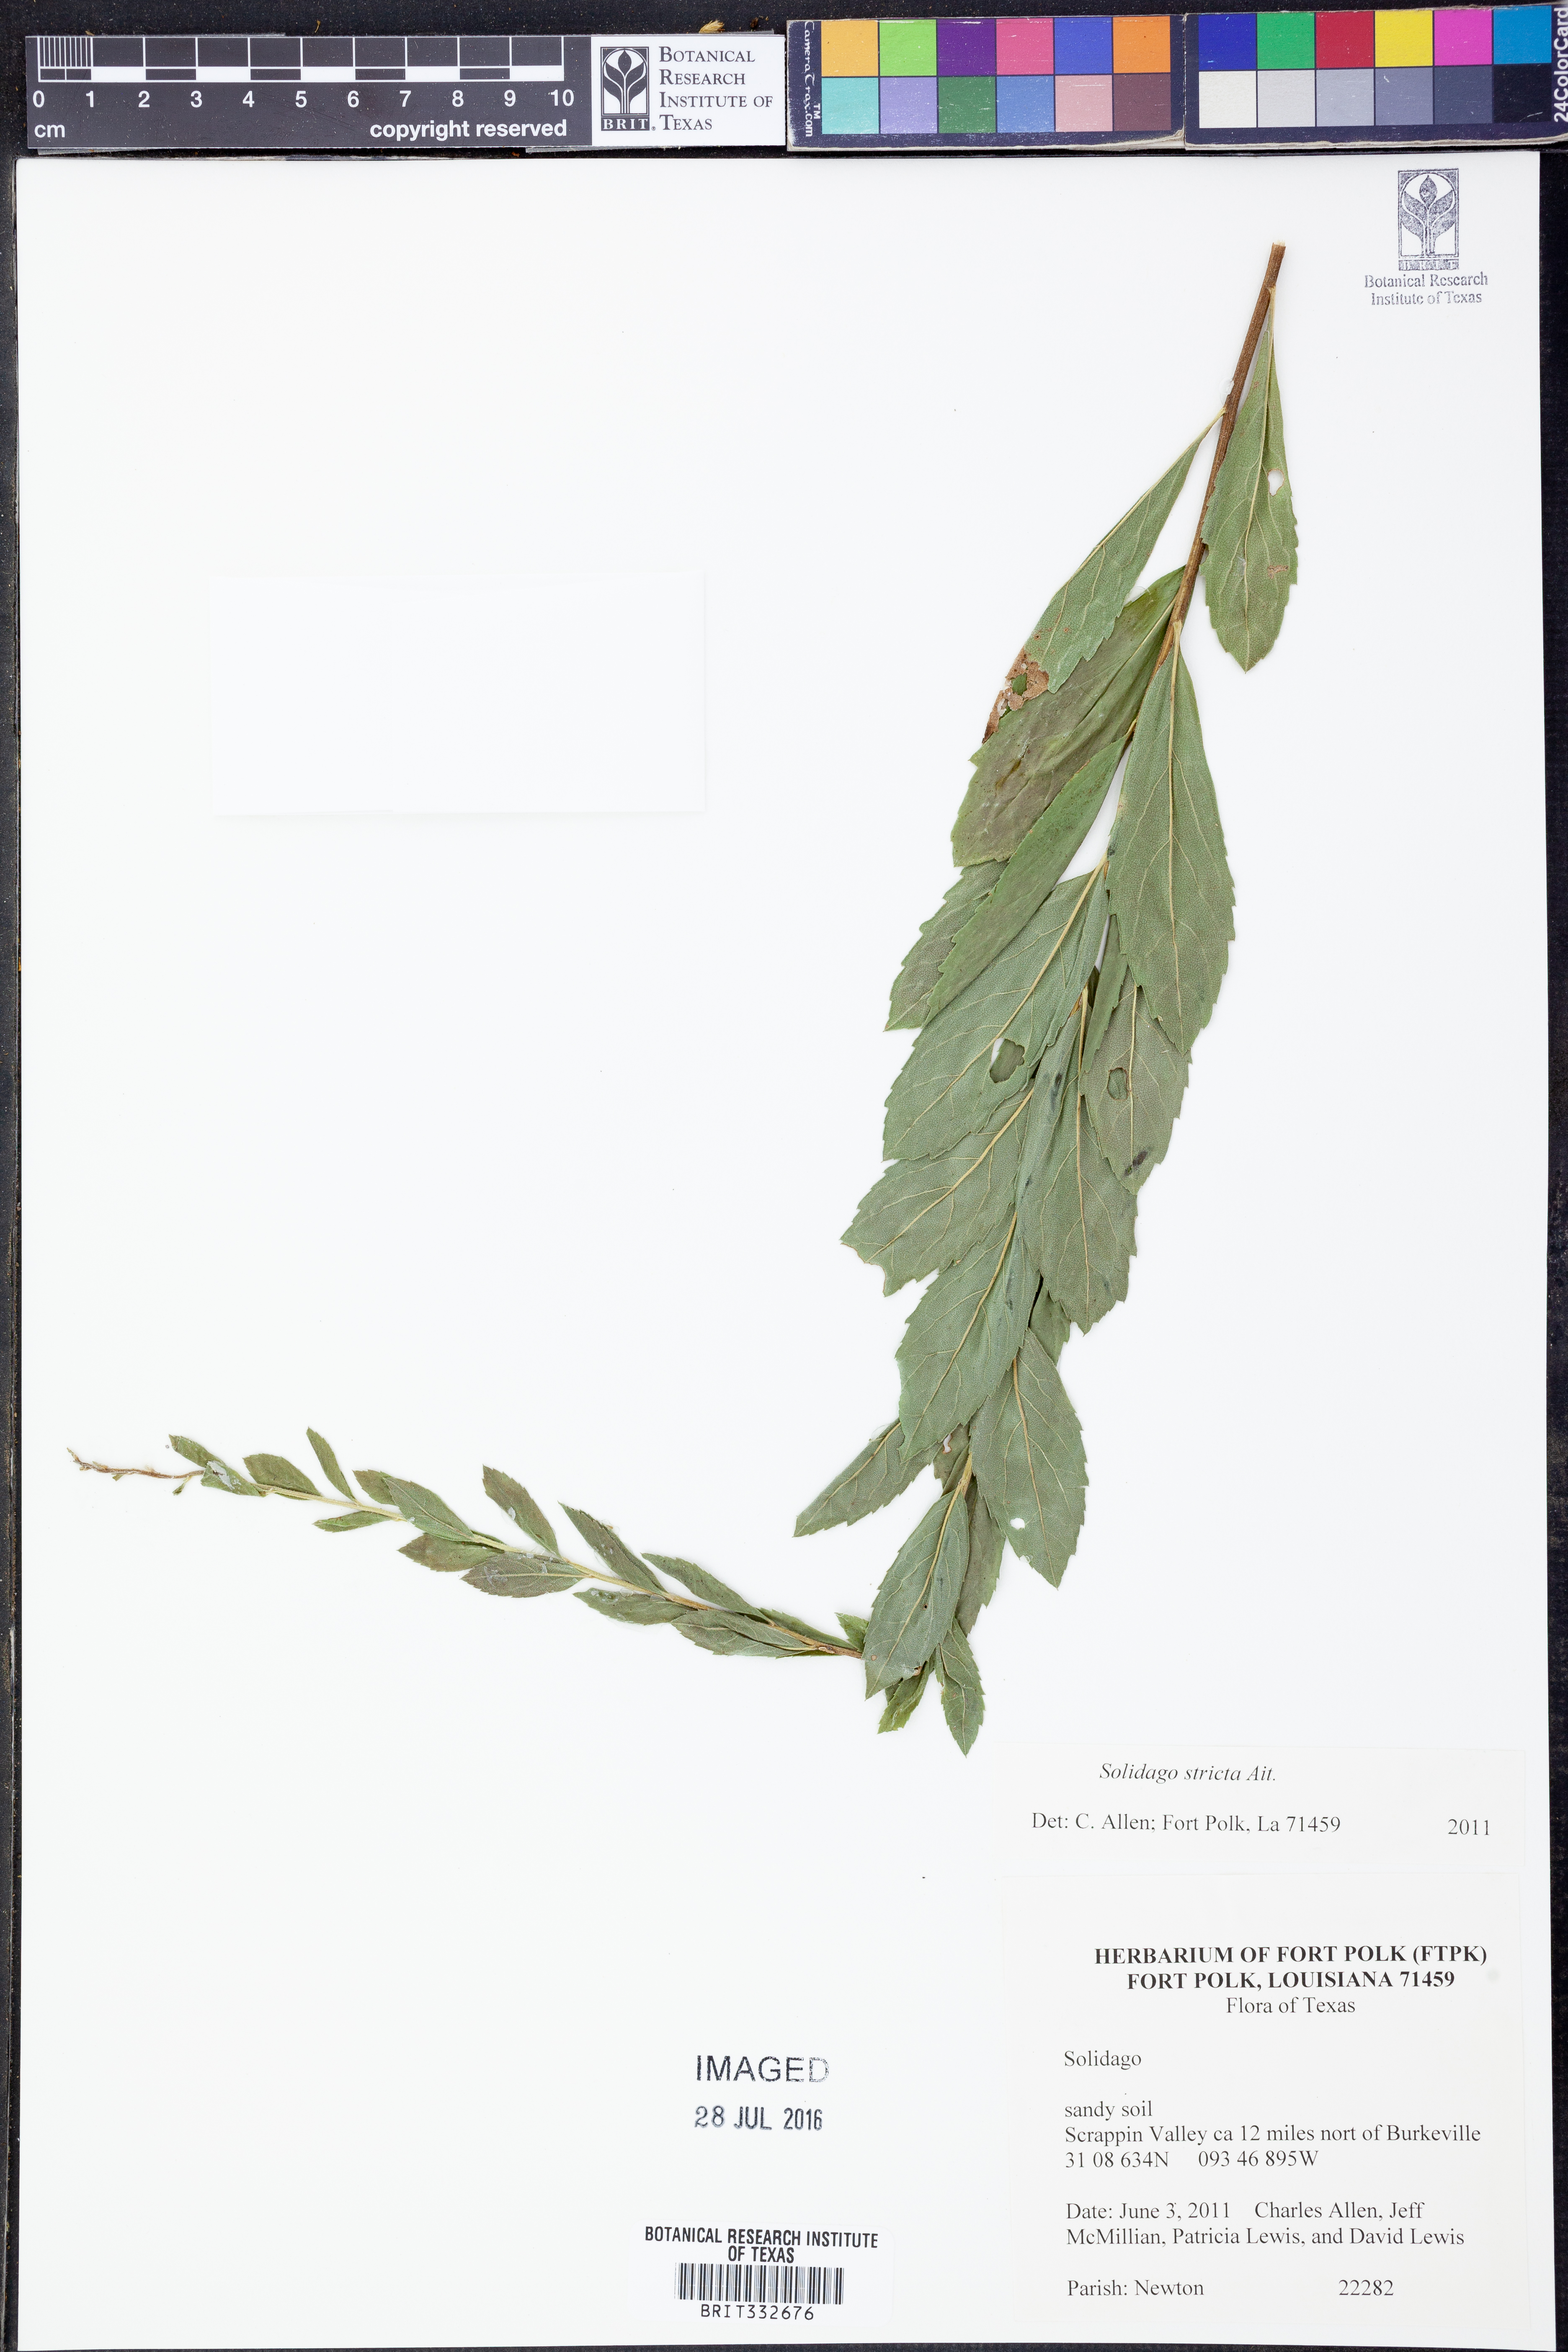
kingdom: Plantae
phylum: Tracheophyta
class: Magnoliopsida
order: Asterales
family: Asteraceae
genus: Solidago
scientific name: Solidago stricta
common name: Pine barren bog goldenrod
